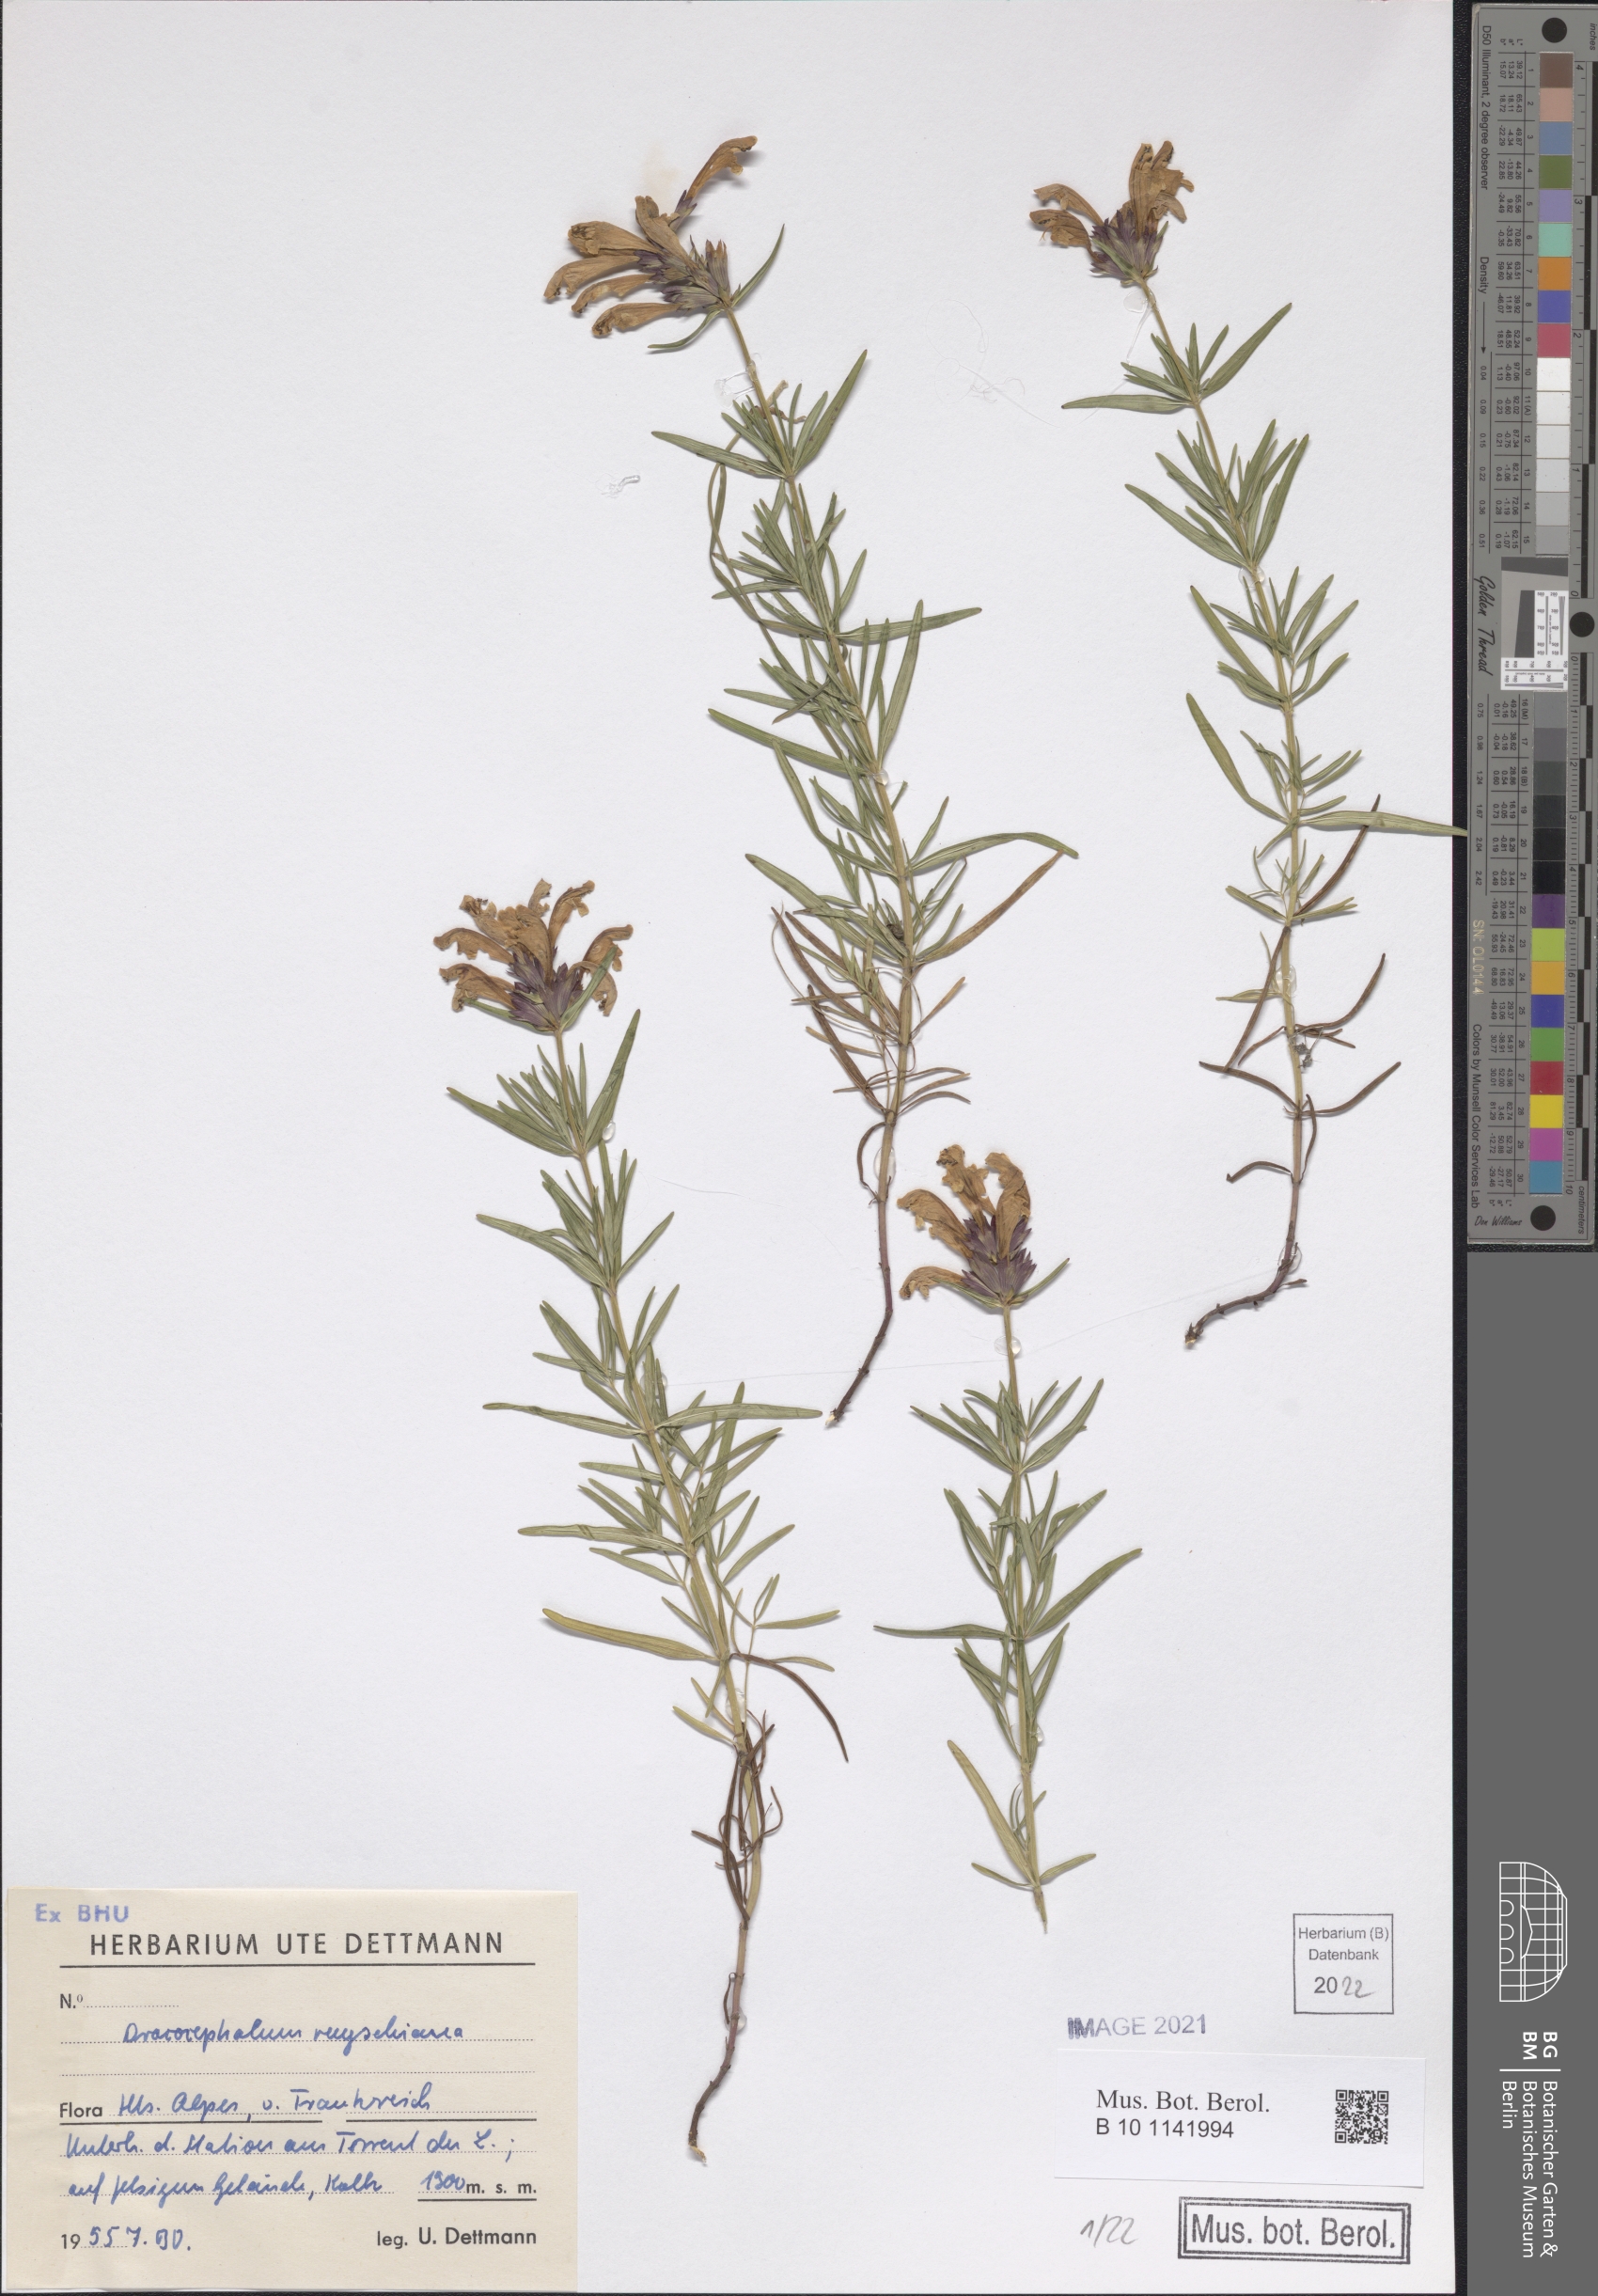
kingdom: Plantae
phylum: Tracheophyta
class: Magnoliopsida
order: Lamiales
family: Lamiaceae
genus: Dracocephalum
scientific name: Dracocephalum ruyschiana
